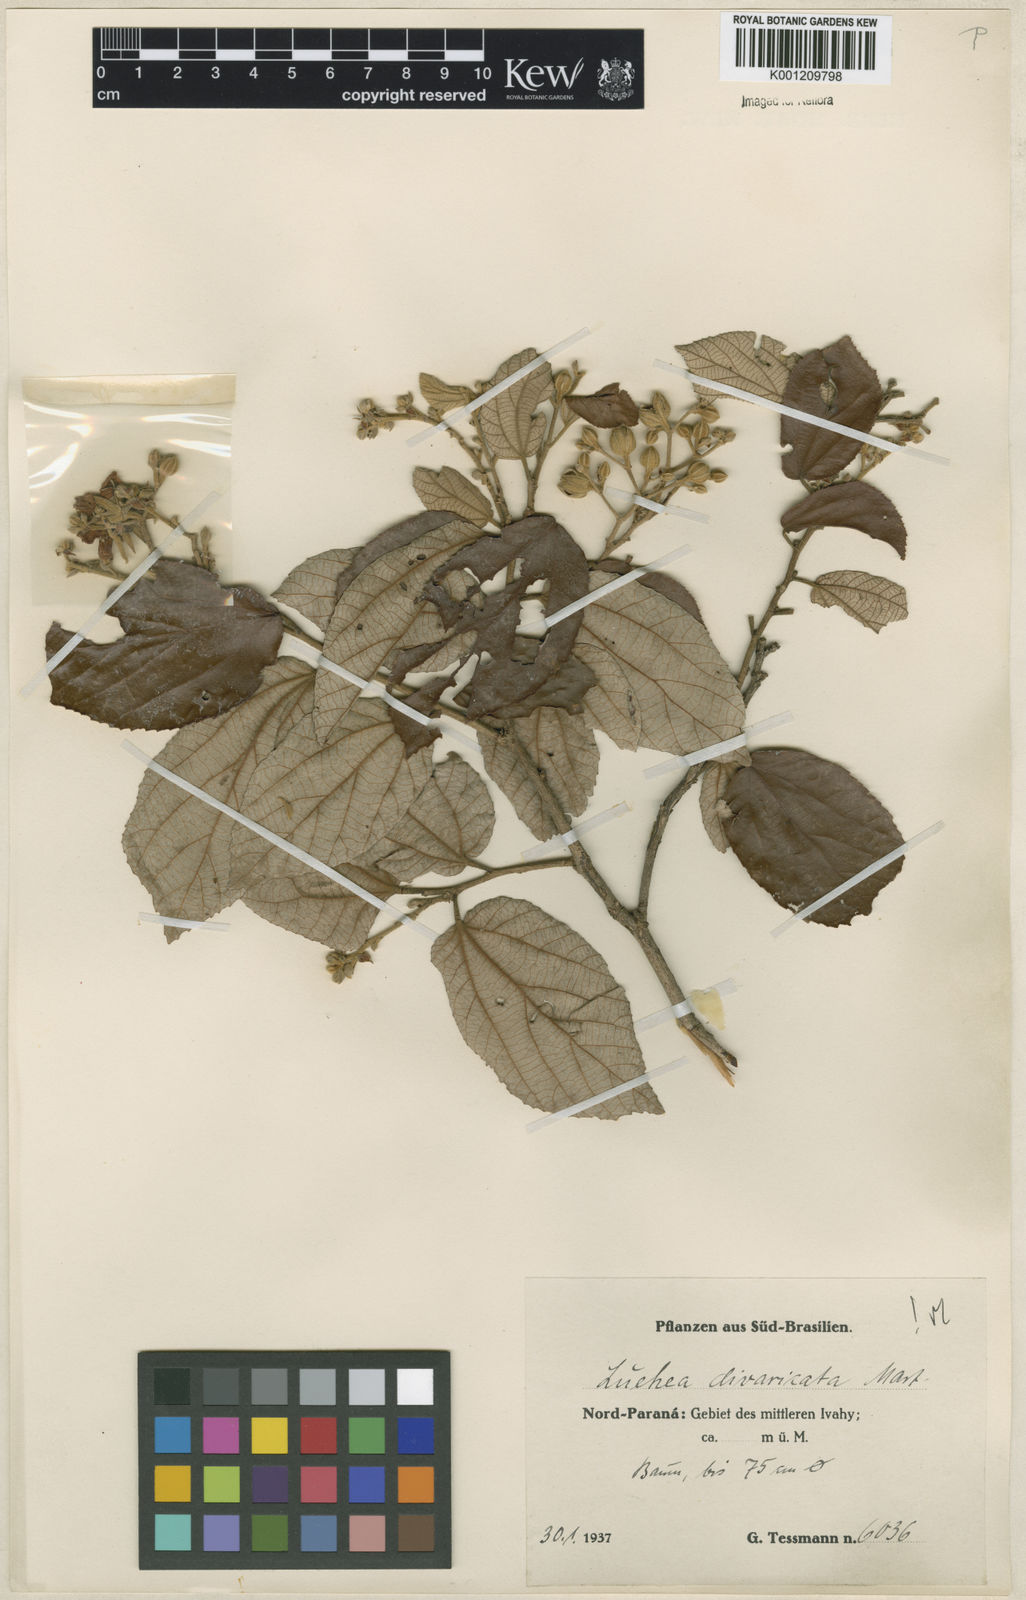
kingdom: Plantae
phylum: Tracheophyta
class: Magnoliopsida
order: Malvales
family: Malvaceae
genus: Luehea
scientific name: Luehea divaricata
